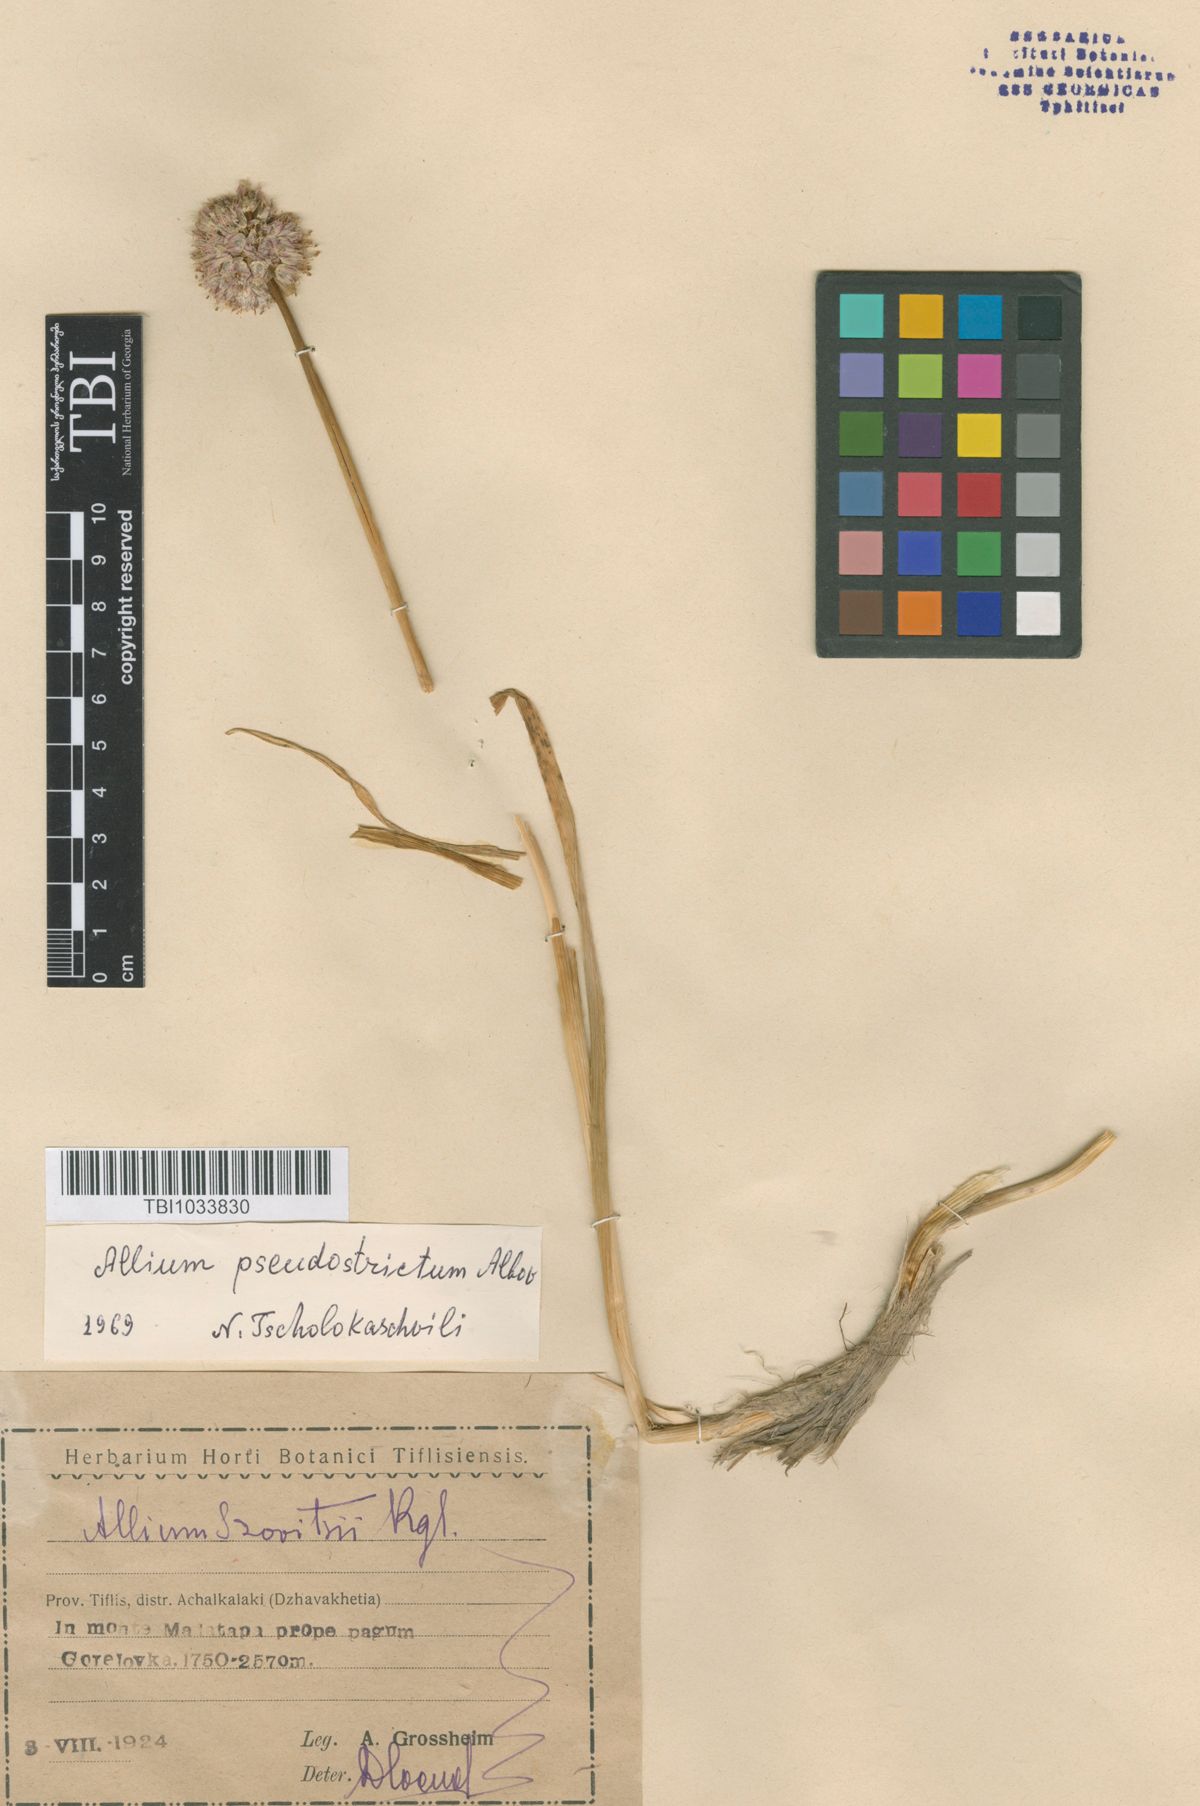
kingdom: Plantae
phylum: Tracheophyta
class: Liliopsida
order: Asparagales
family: Amaryllidaceae
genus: Allium
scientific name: Allium pseudostrictum
